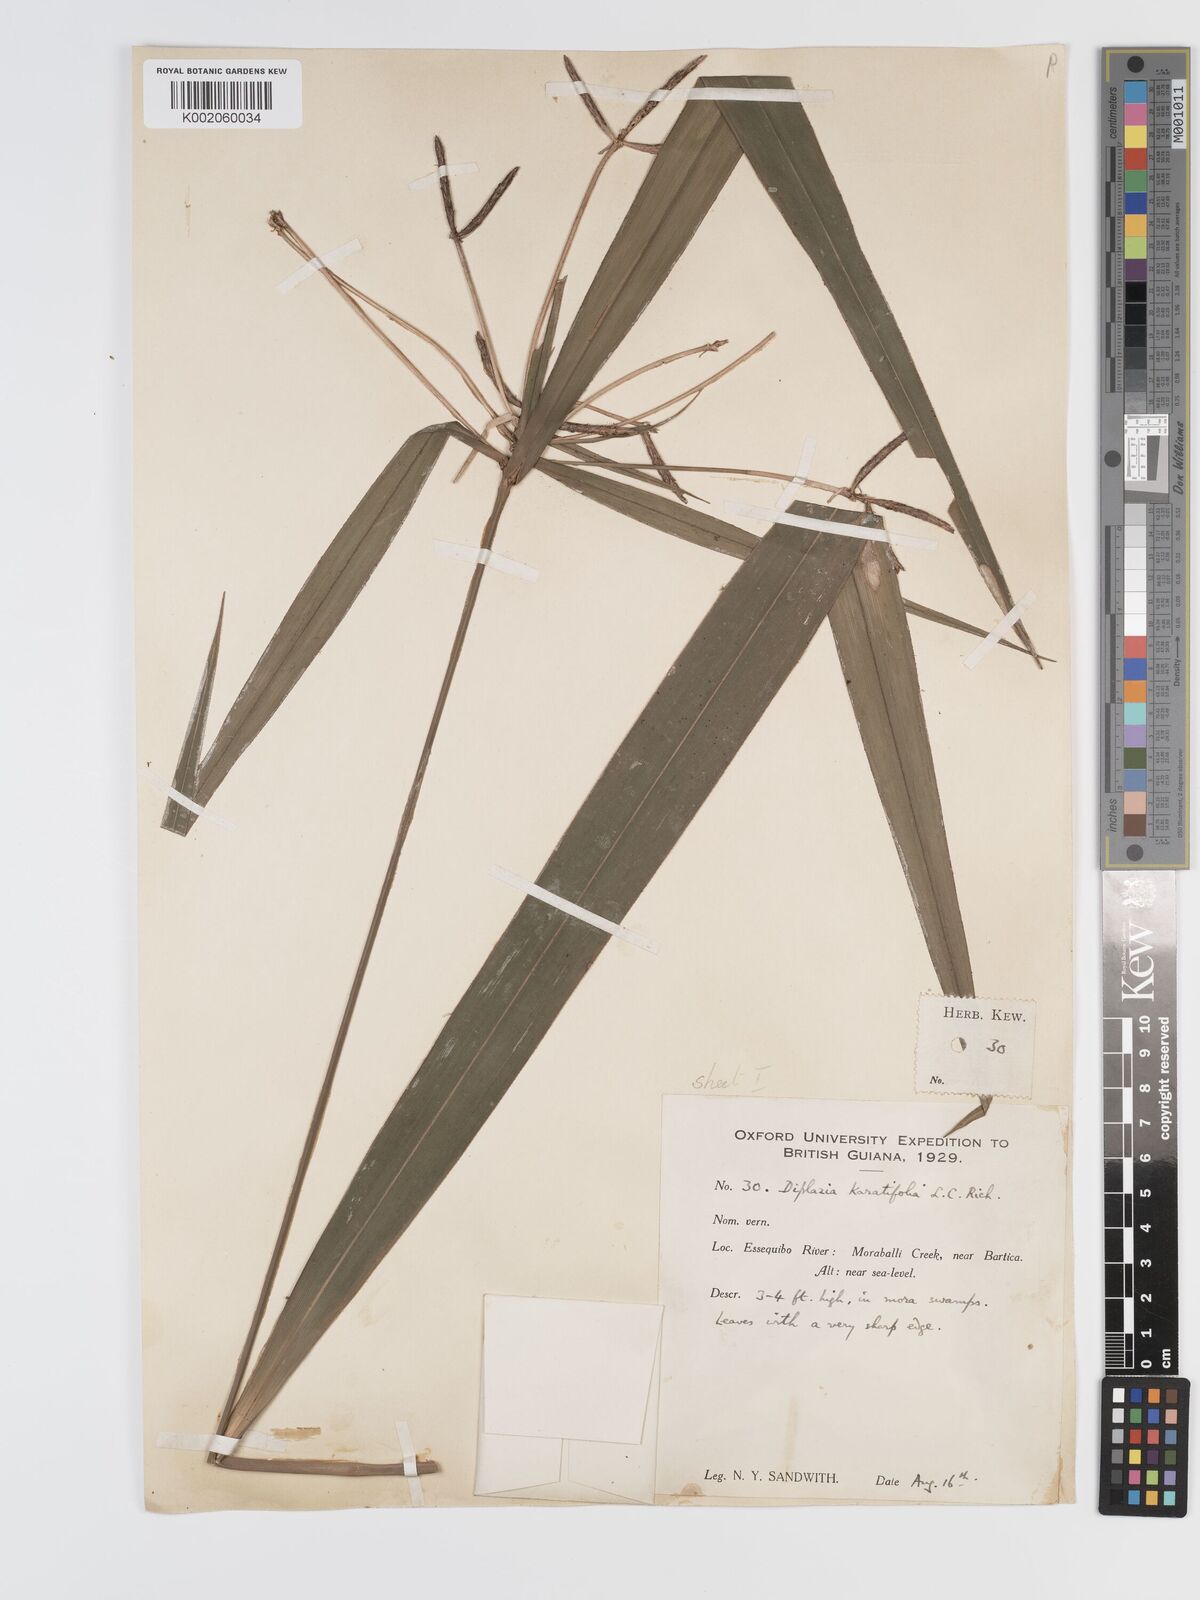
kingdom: Plantae
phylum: Tracheophyta
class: Liliopsida
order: Poales
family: Cyperaceae
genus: Diplasia
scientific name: Diplasia karatifolia
